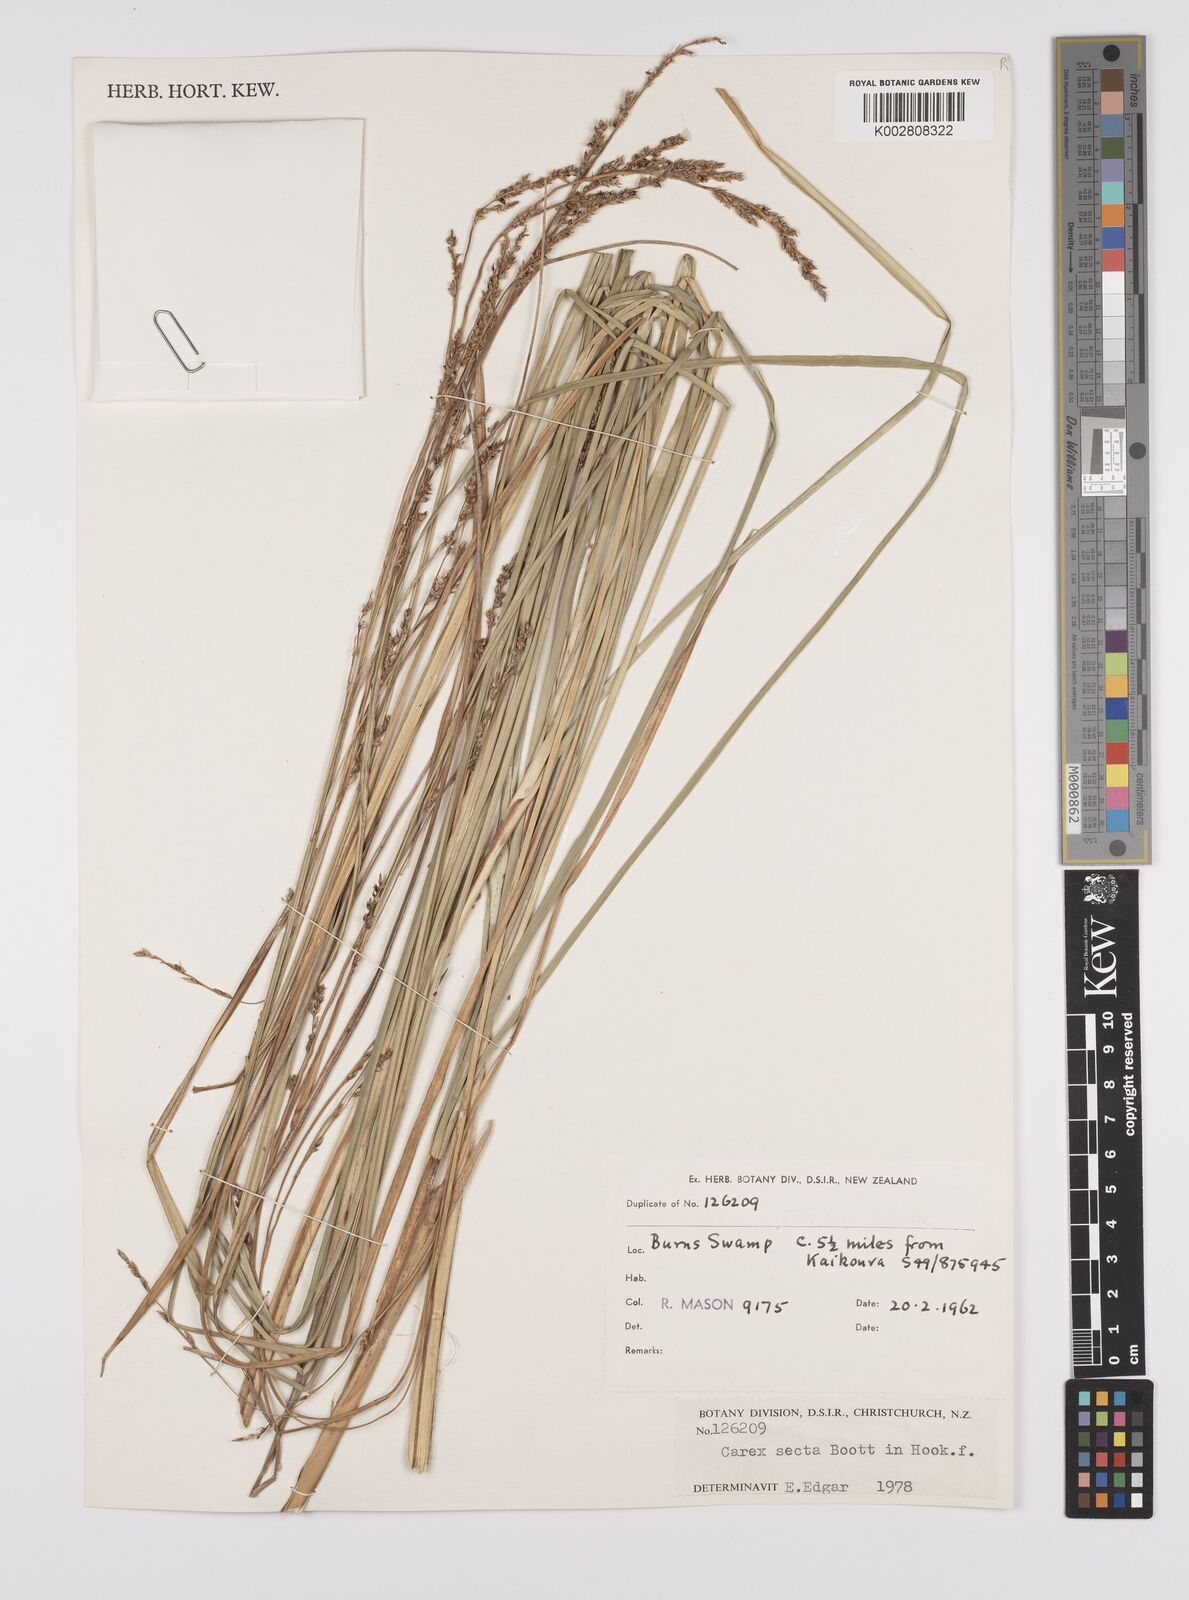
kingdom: Plantae
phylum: Tracheophyta
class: Liliopsida
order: Poales
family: Cyperaceae
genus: Carex
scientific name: Carex appressa
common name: Tussock sedge
